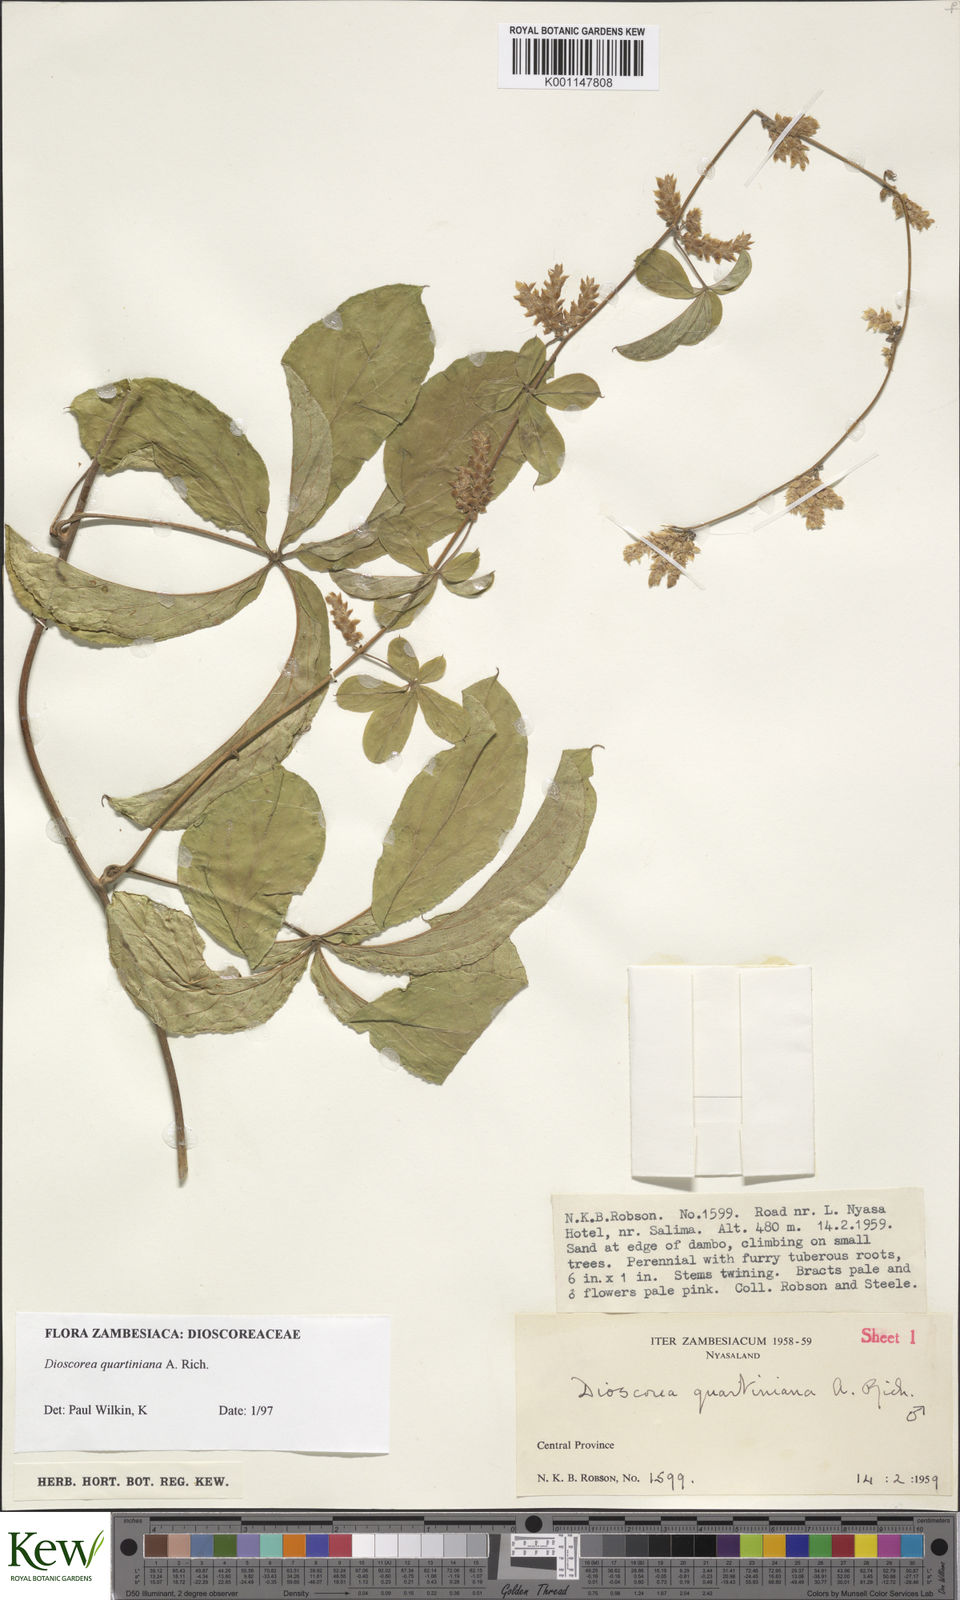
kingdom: Plantae
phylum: Tracheophyta
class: Liliopsida
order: Dioscoreales
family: Dioscoreaceae
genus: Dioscorea
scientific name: Dioscorea quartiniana
